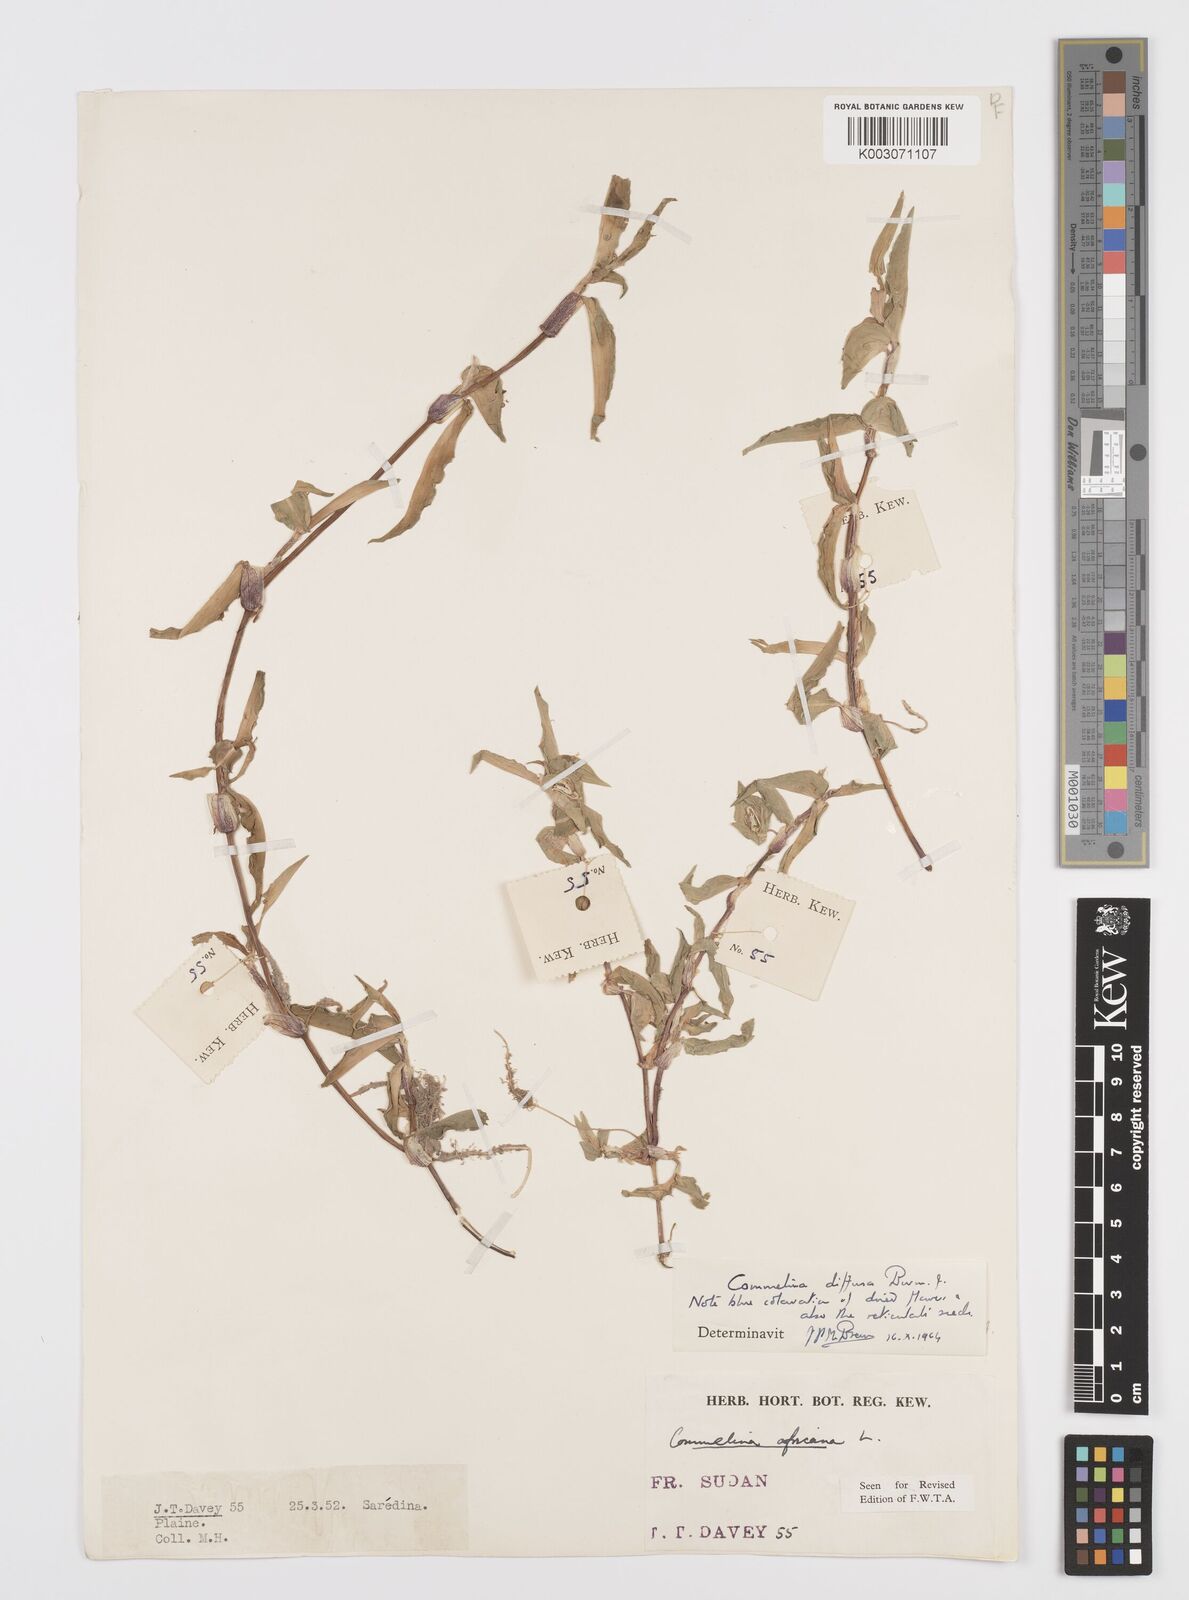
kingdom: Plantae
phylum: Tracheophyta
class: Liliopsida
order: Commelinales
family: Commelinaceae
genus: Commelina
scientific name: Commelina diffusa
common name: Climbing dayflower
